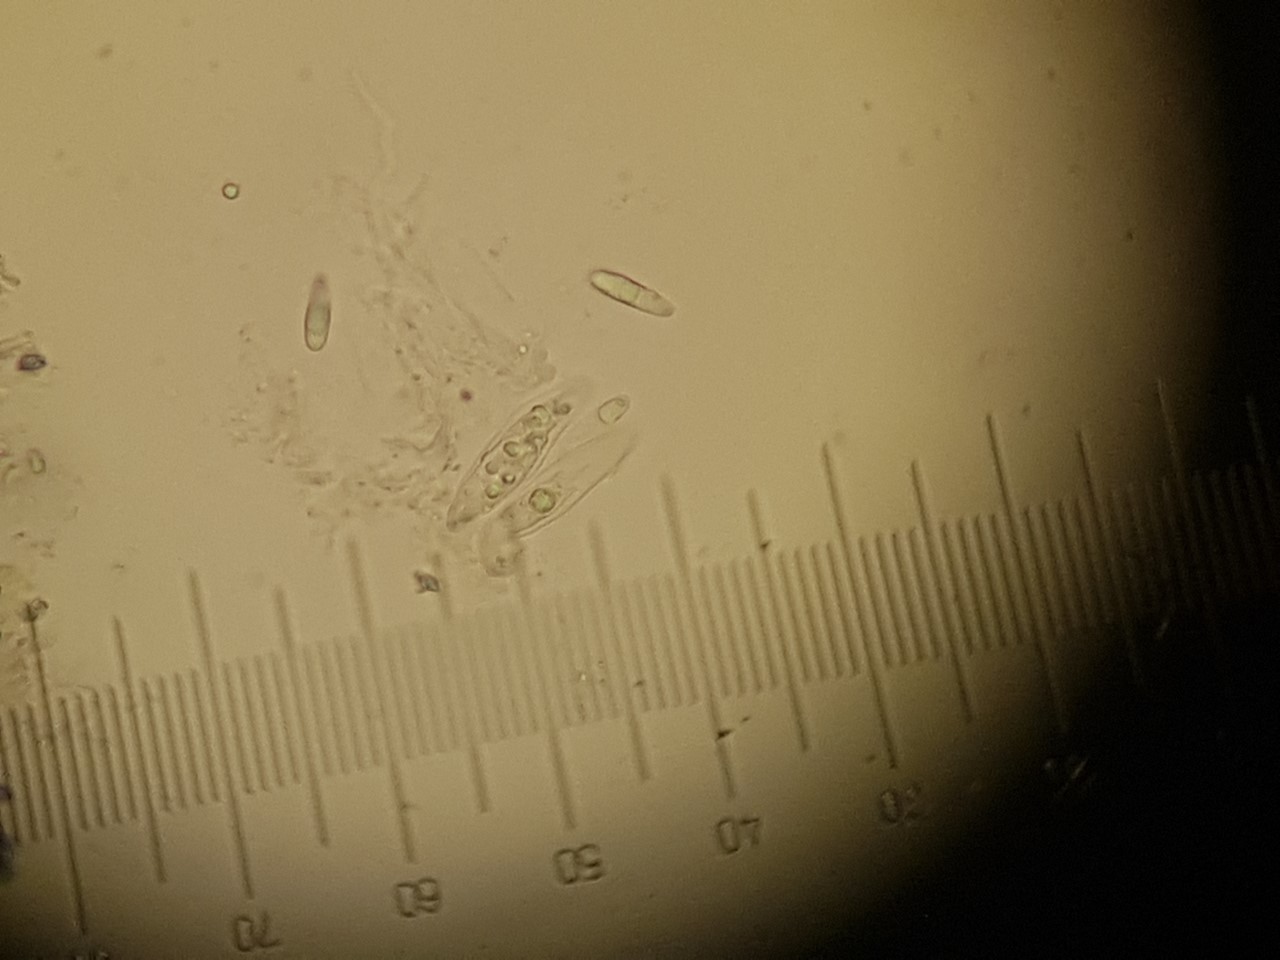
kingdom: Fungi
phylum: Ascomycota
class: Dothideomycetes
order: Microthyriales
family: Microthyriaceae
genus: Microthyrium
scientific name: Microthyrium macrosporum
